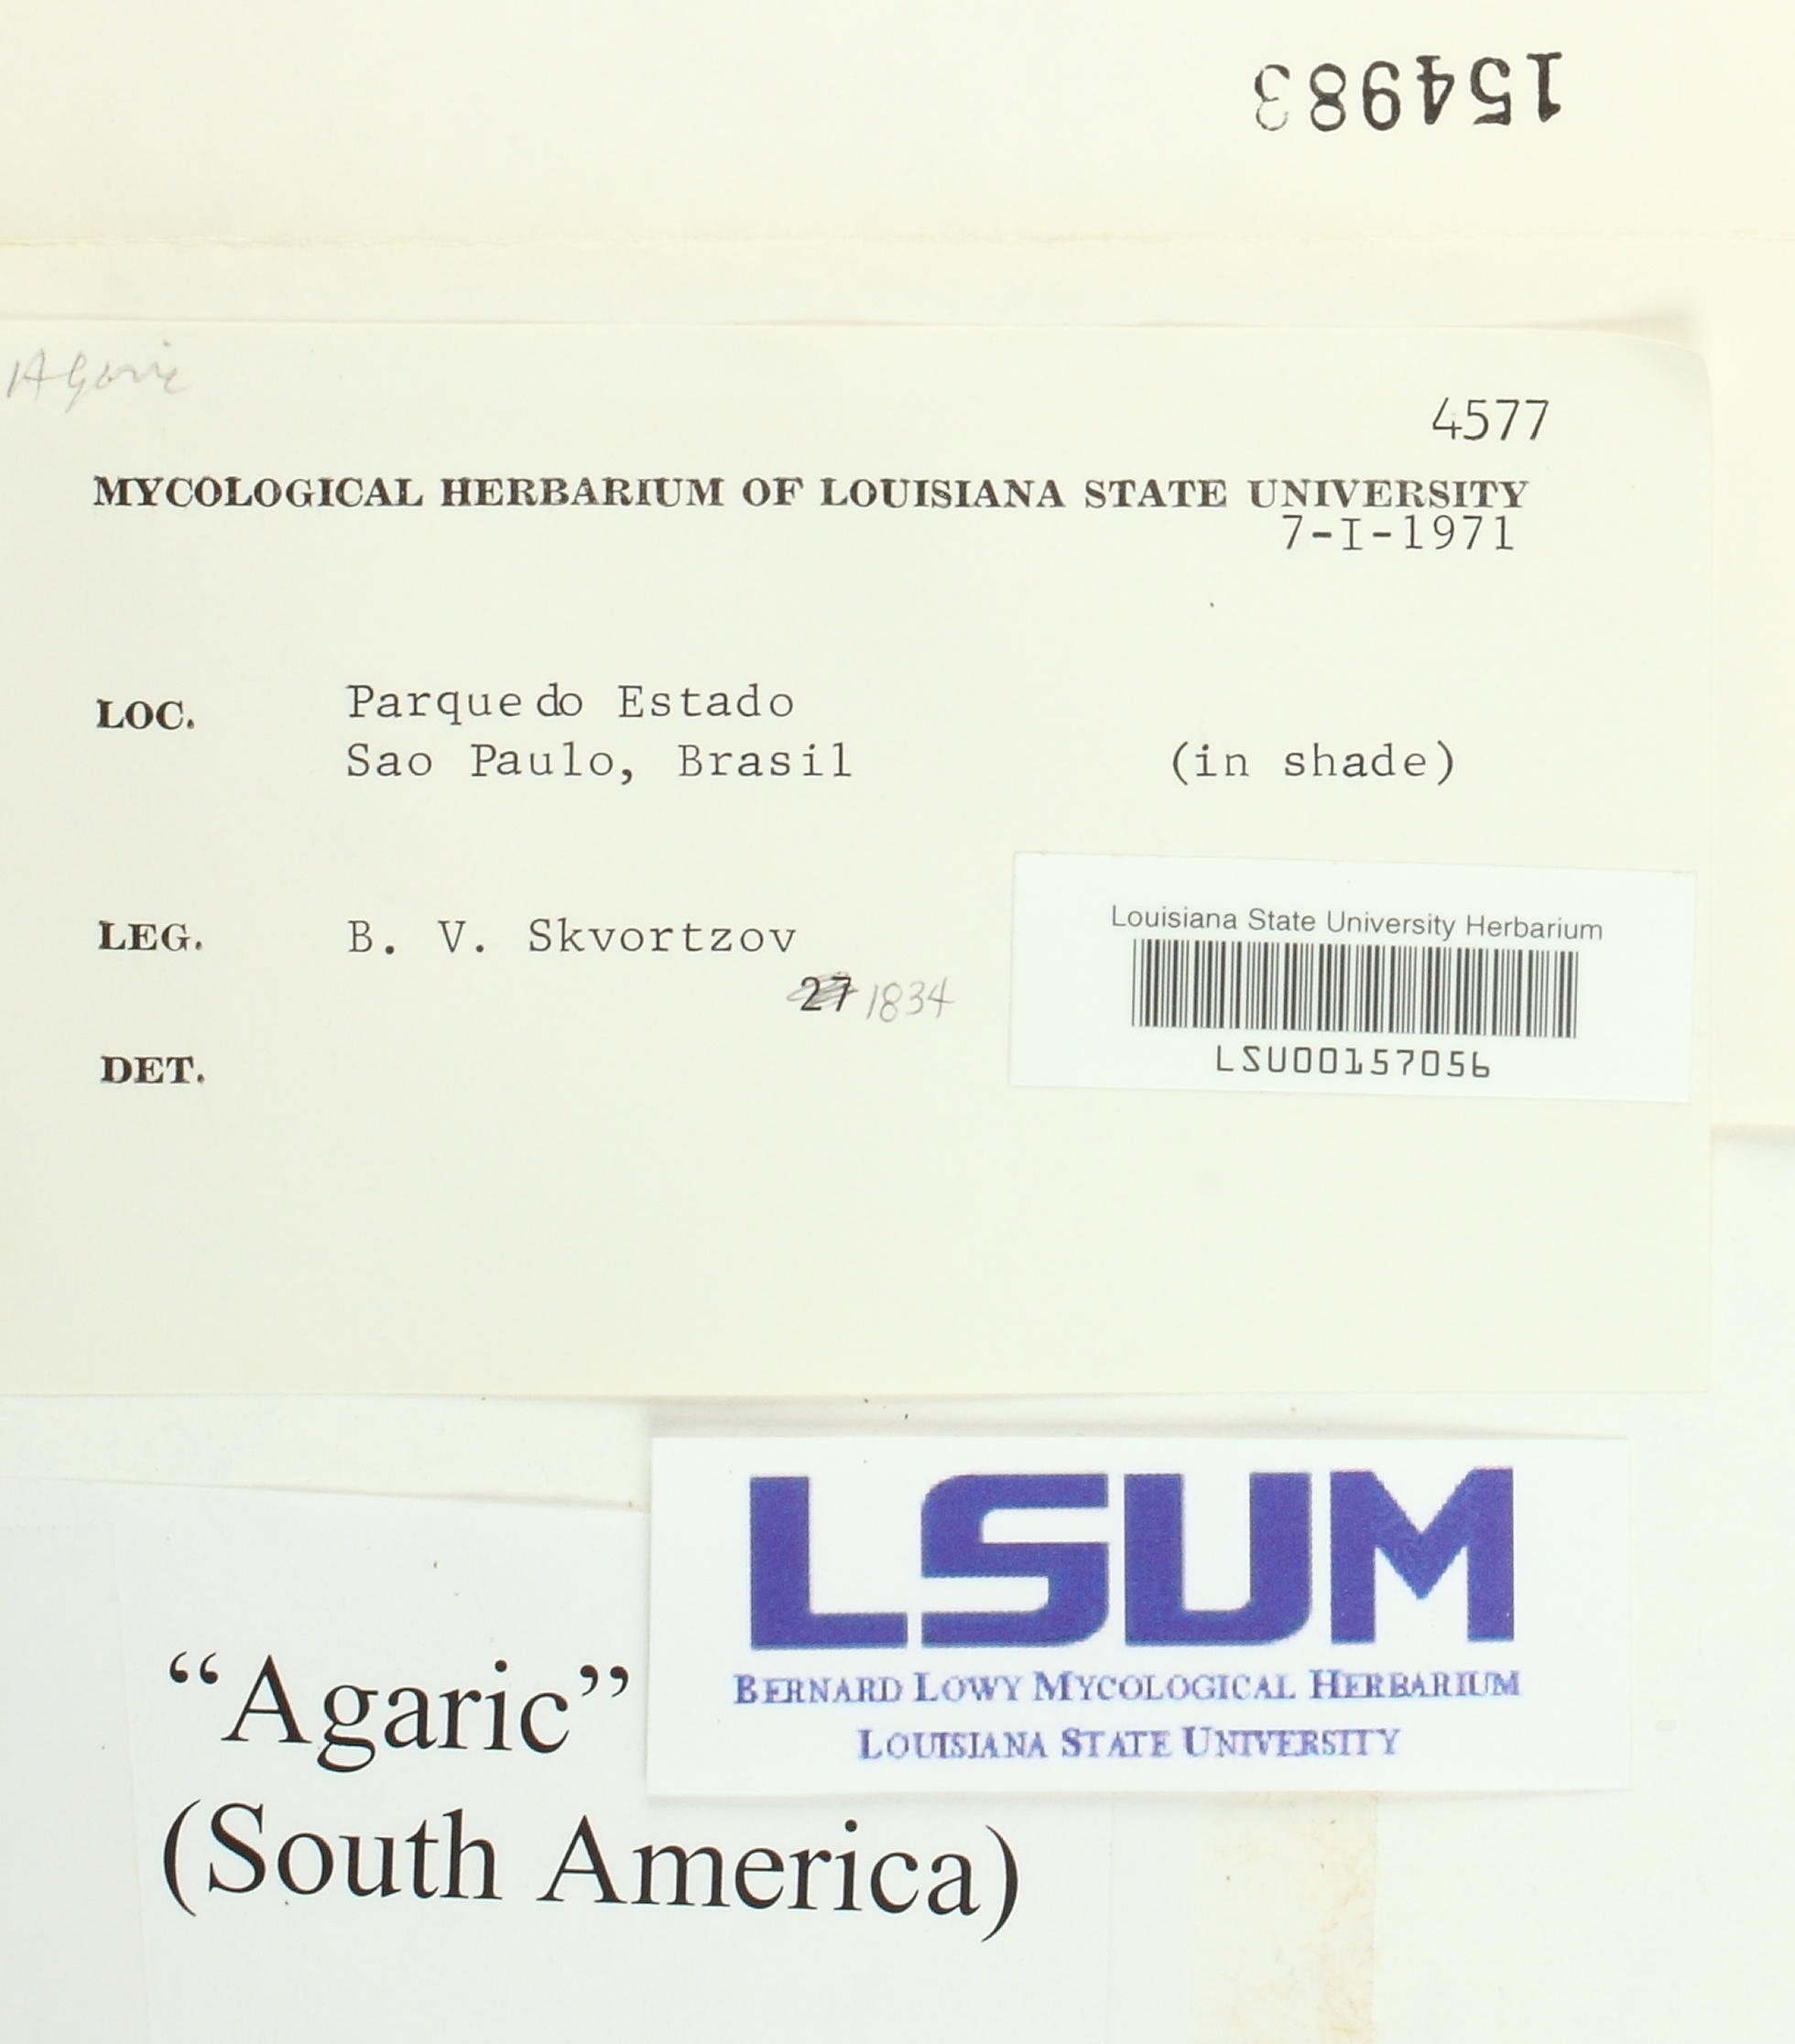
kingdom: Fungi
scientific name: Fungi
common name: Fungi
